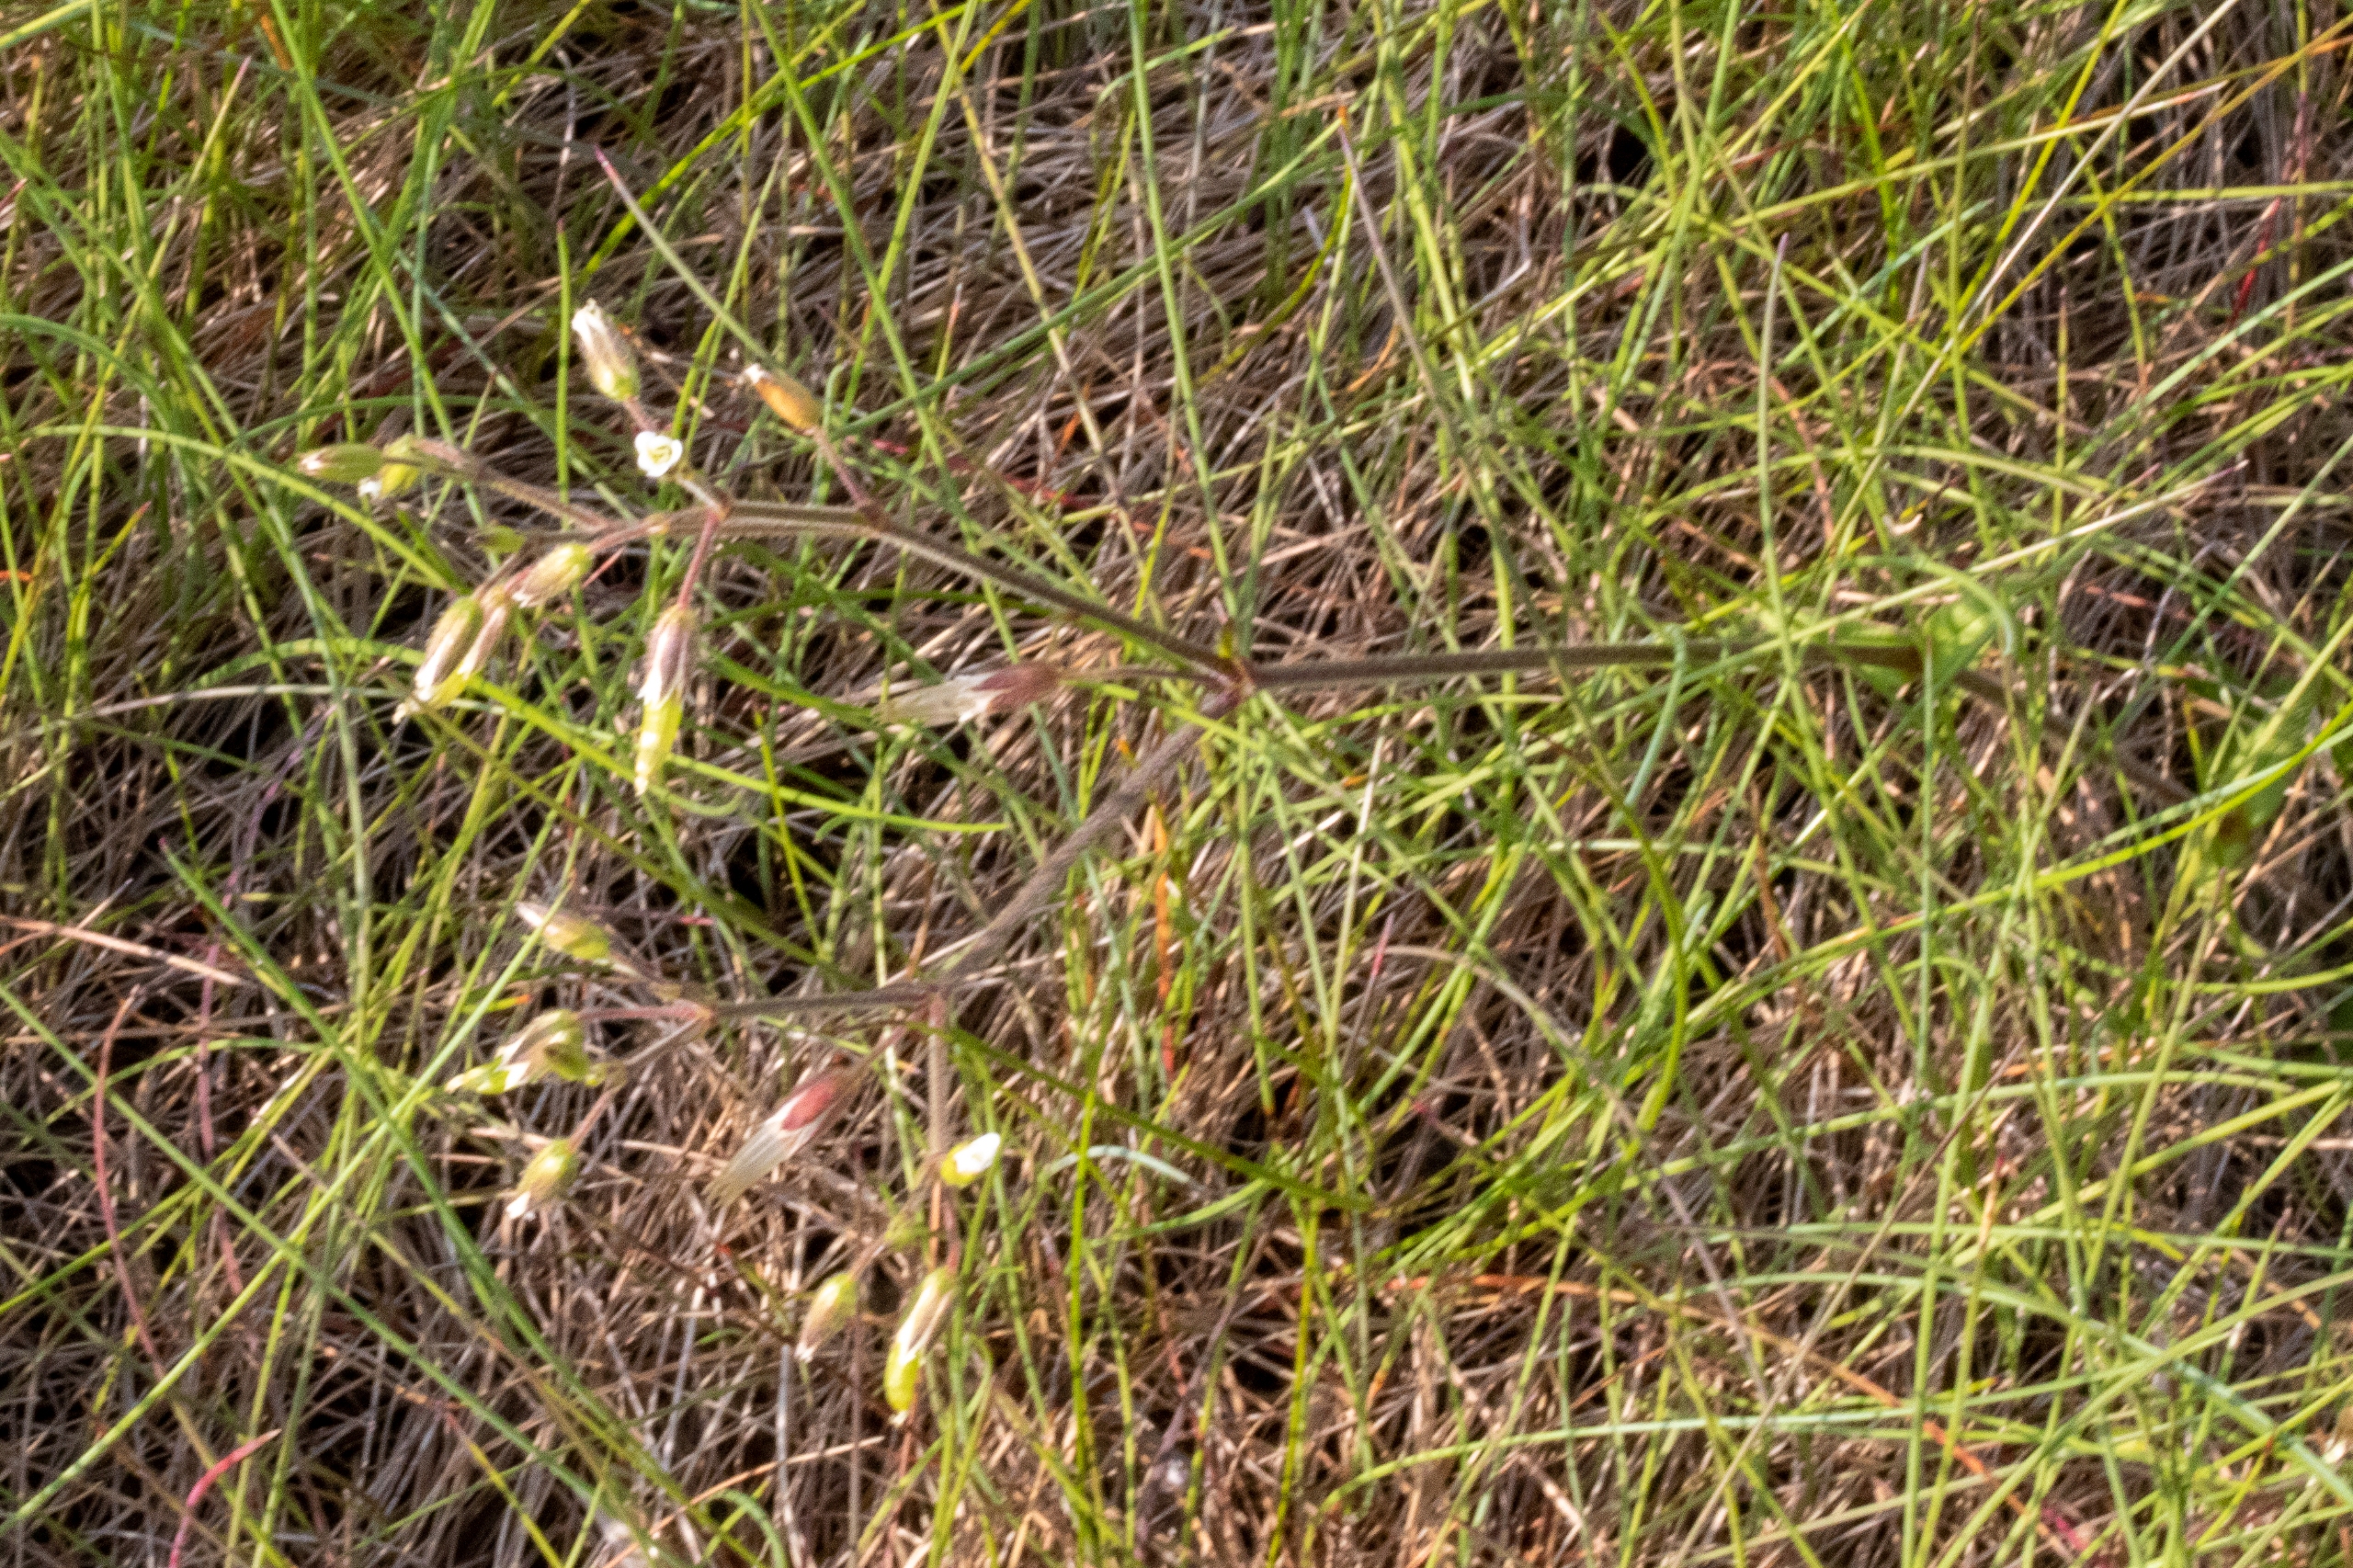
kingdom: Plantae
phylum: Tracheophyta
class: Magnoliopsida
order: Caryophyllales
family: Caryophyllaceae
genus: Cerastium
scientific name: Cerastium fontanum
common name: Almindelig hønsetarm
